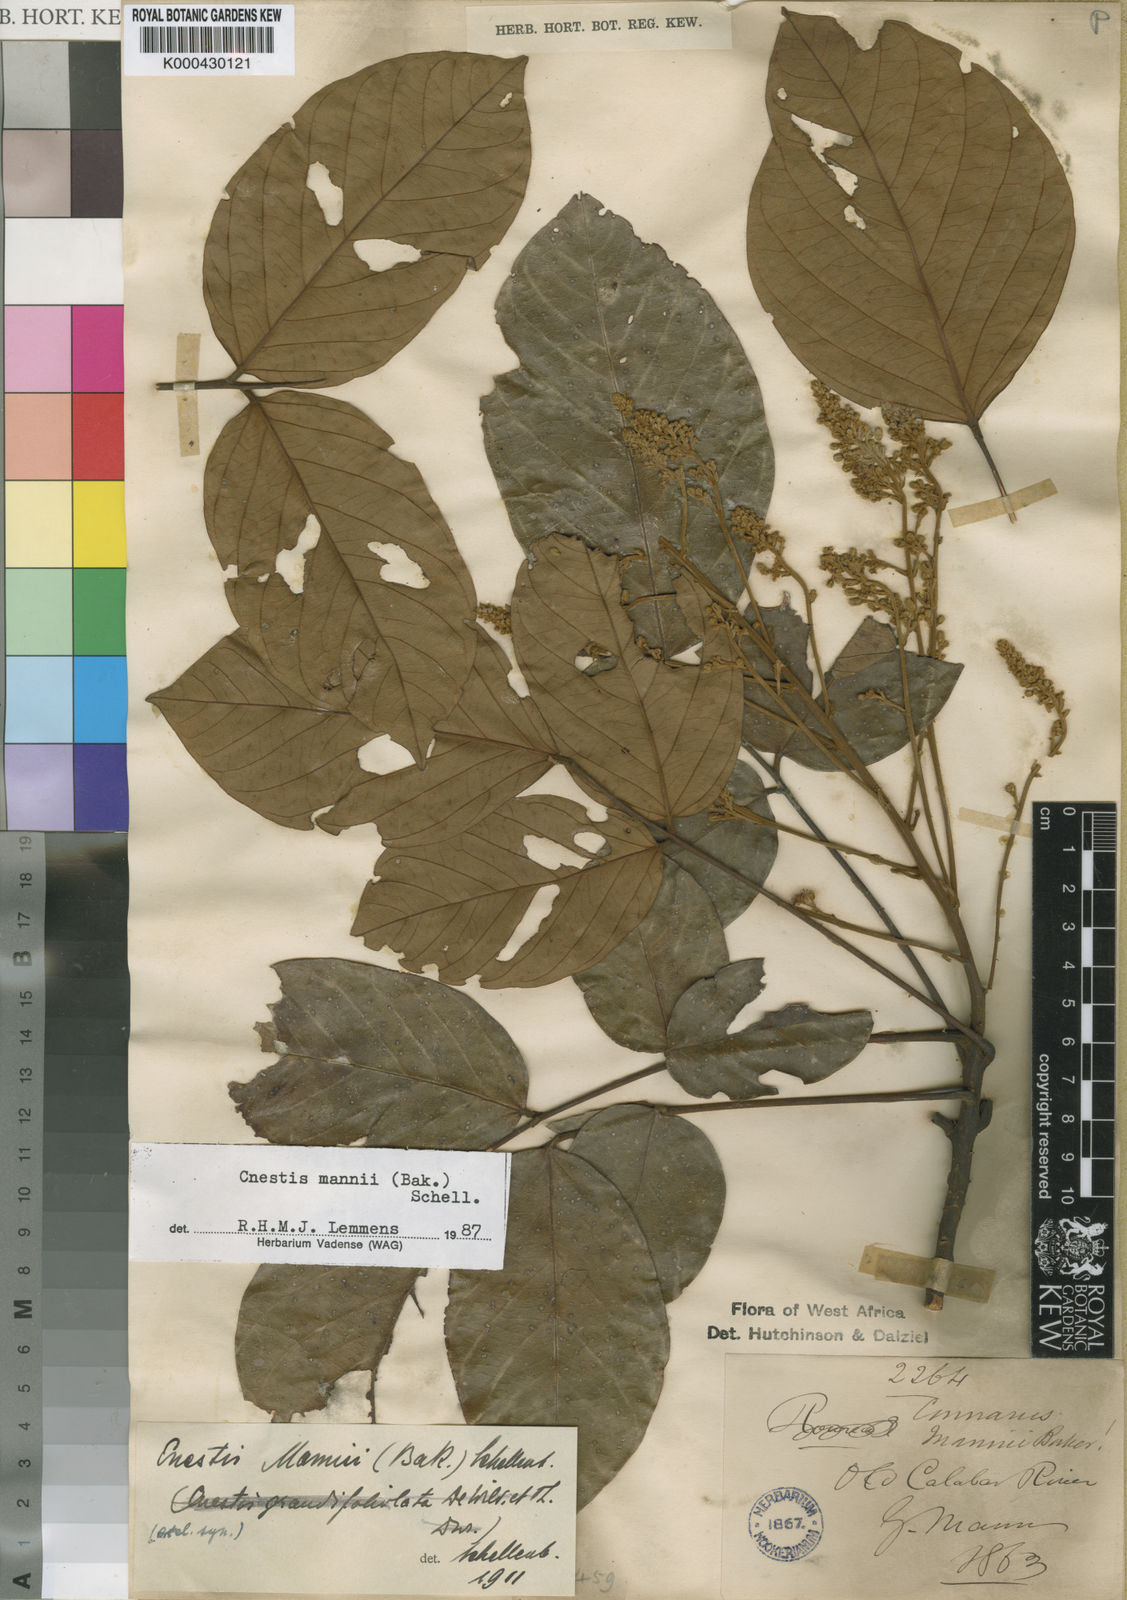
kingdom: Plantae
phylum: Tracheophyta
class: Magnoliopsida
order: Oxalidales
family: Connaraceae
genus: Cnestis
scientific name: Cnestis mannii
